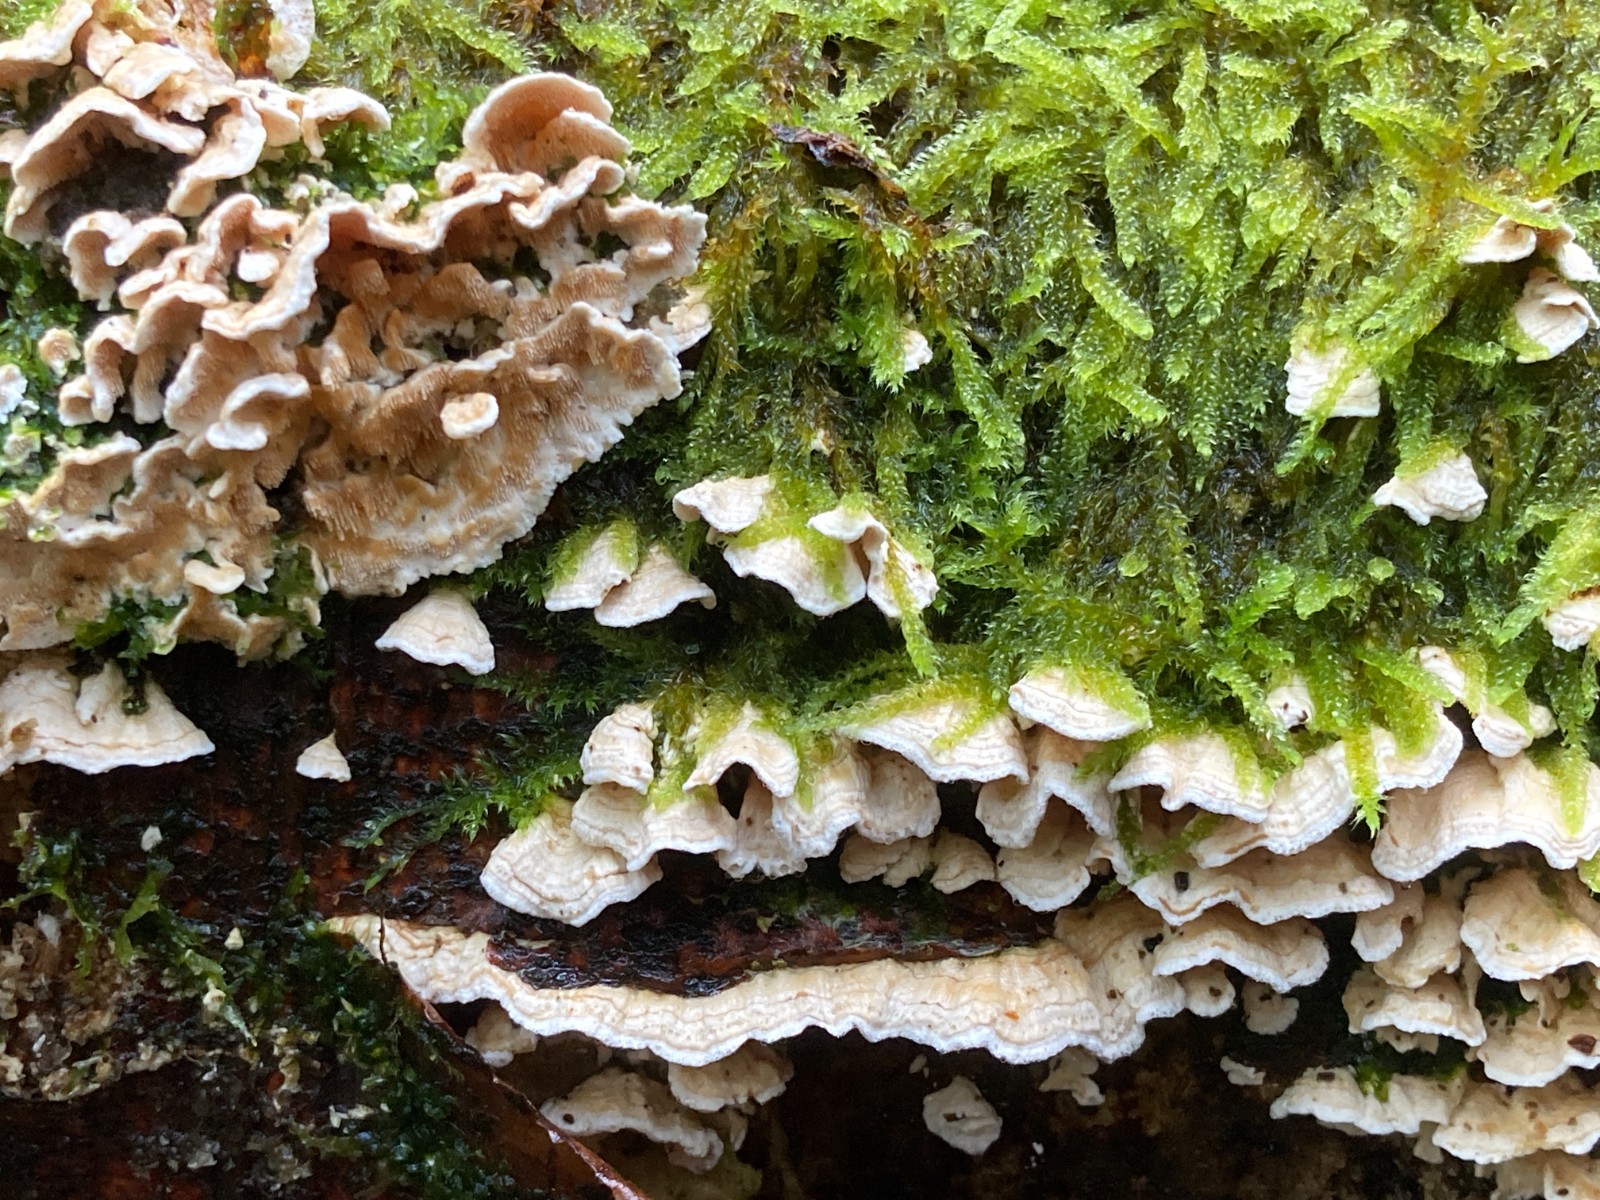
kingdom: Fungi
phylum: Basidiomycota
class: Agaricomycetes
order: Polyporales
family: Steccherinaceae
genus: Steccherinum
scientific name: Steccherinum ochraceum
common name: almindelig skønpig
